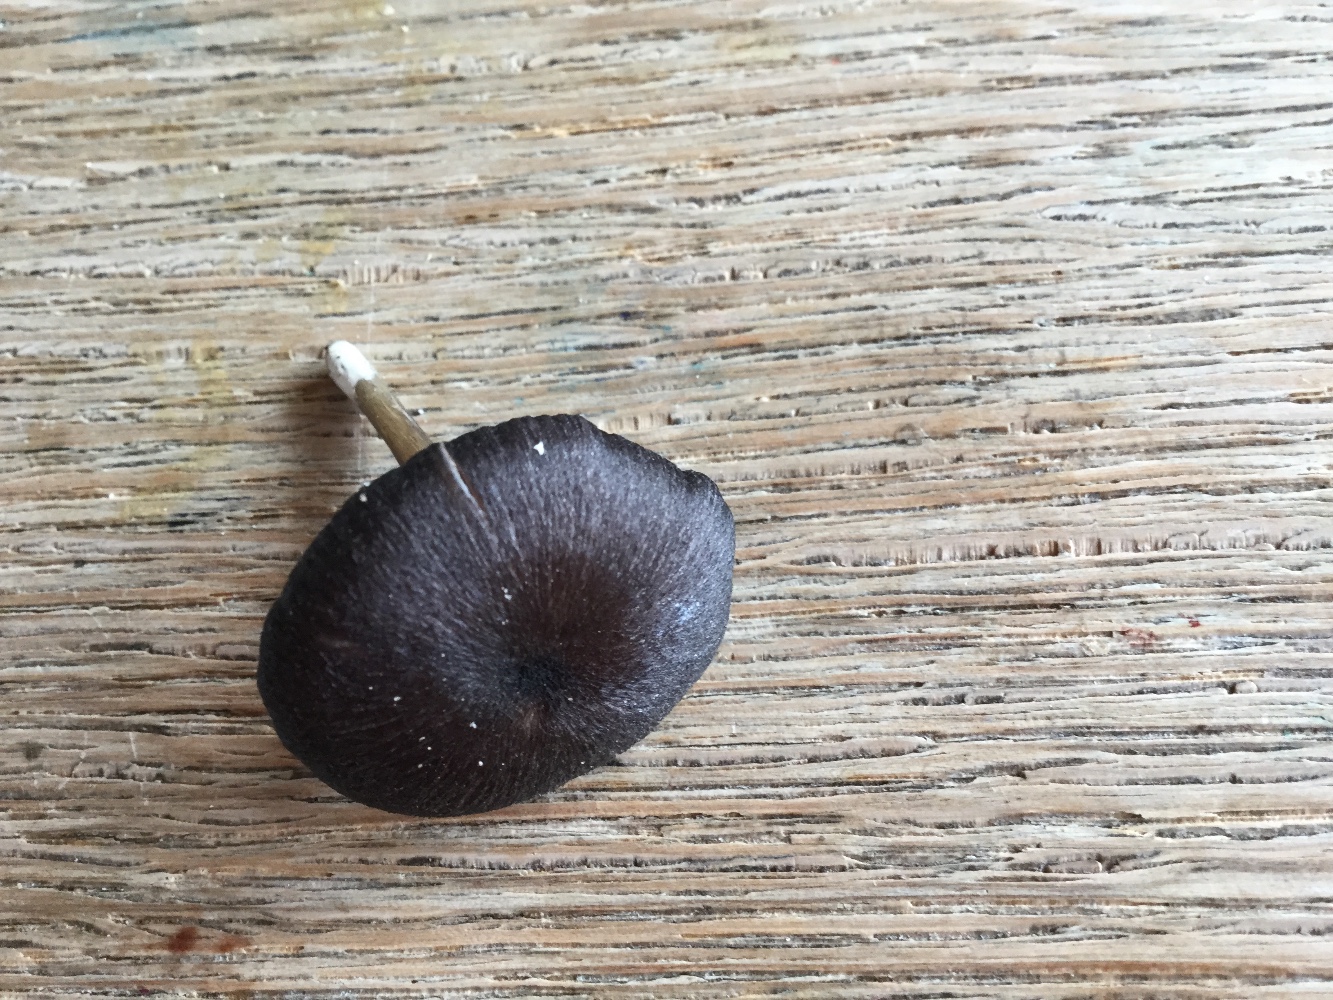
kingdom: Fungi
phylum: Basidiomycota
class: Agaricomycetes
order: Agaricales
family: Entolomataceae
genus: Entoloma
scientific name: Entoloma
